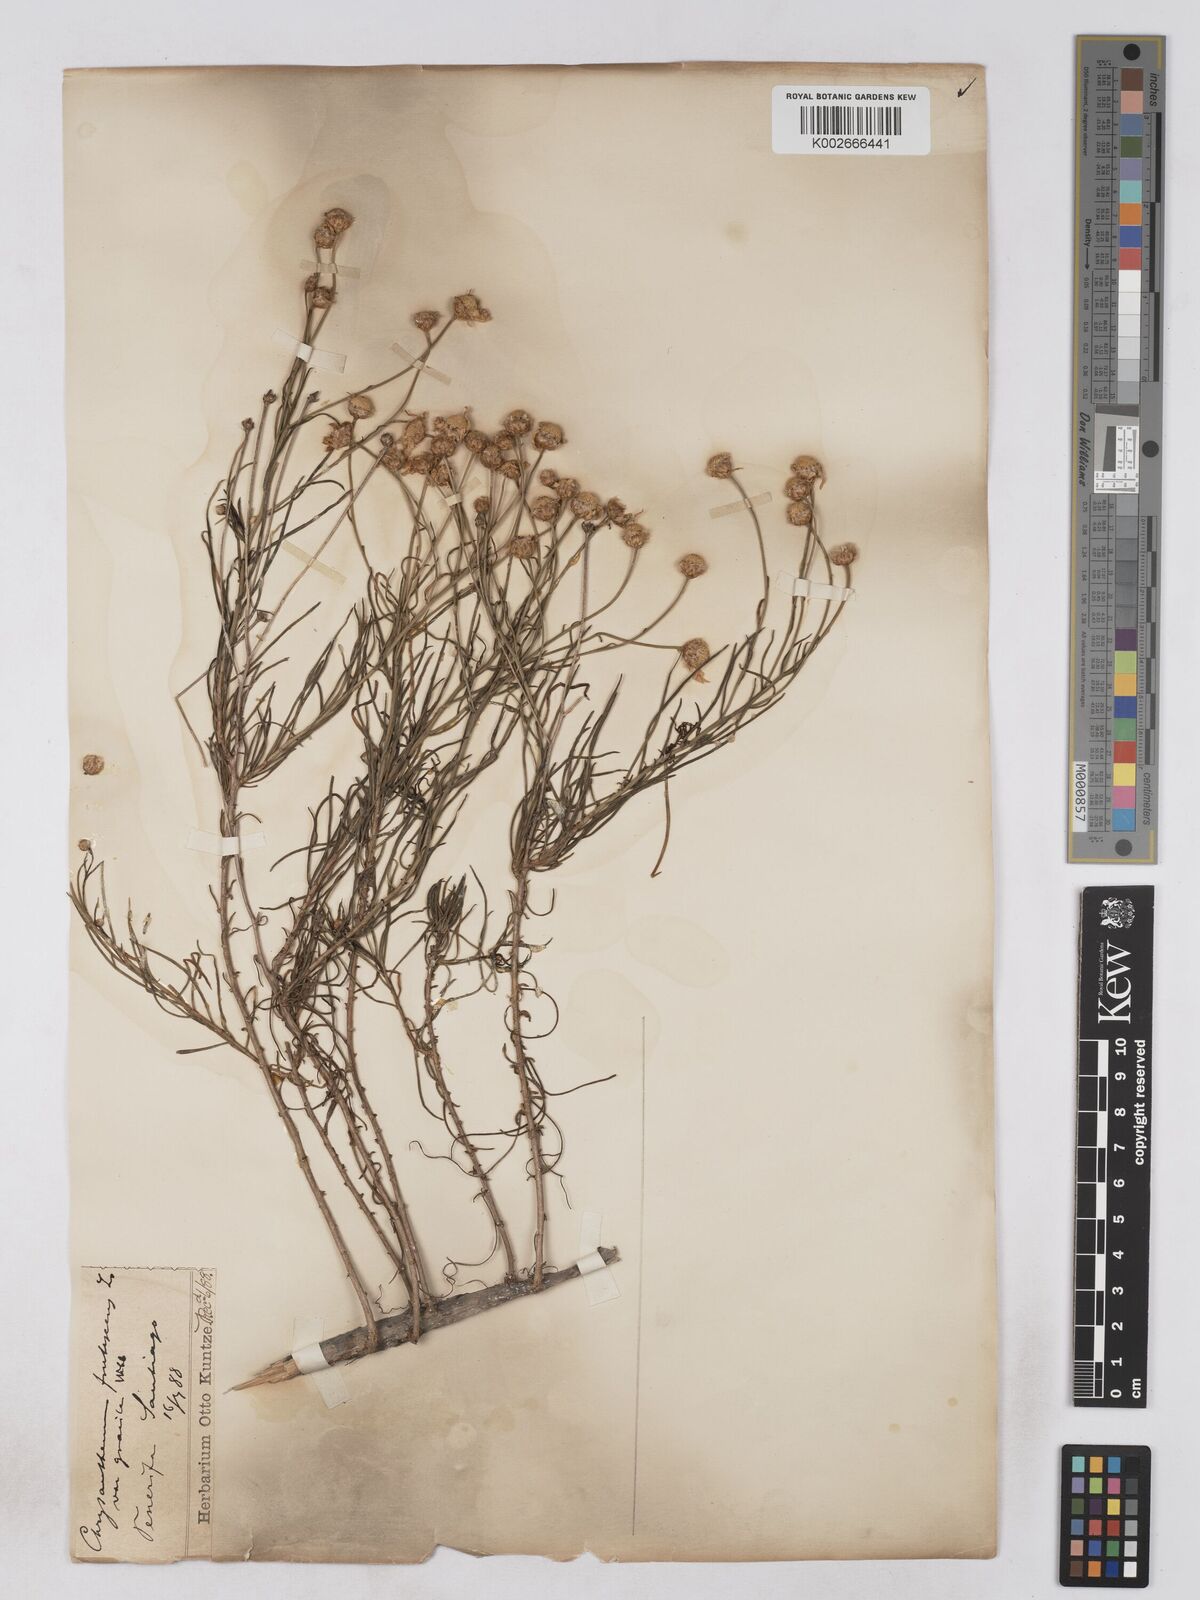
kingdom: Plantae
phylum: Tracheophyta
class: Magnoliopsida
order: Asterales
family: Asteraceae
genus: Argyranthemum
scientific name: Argyranthemum gracile
